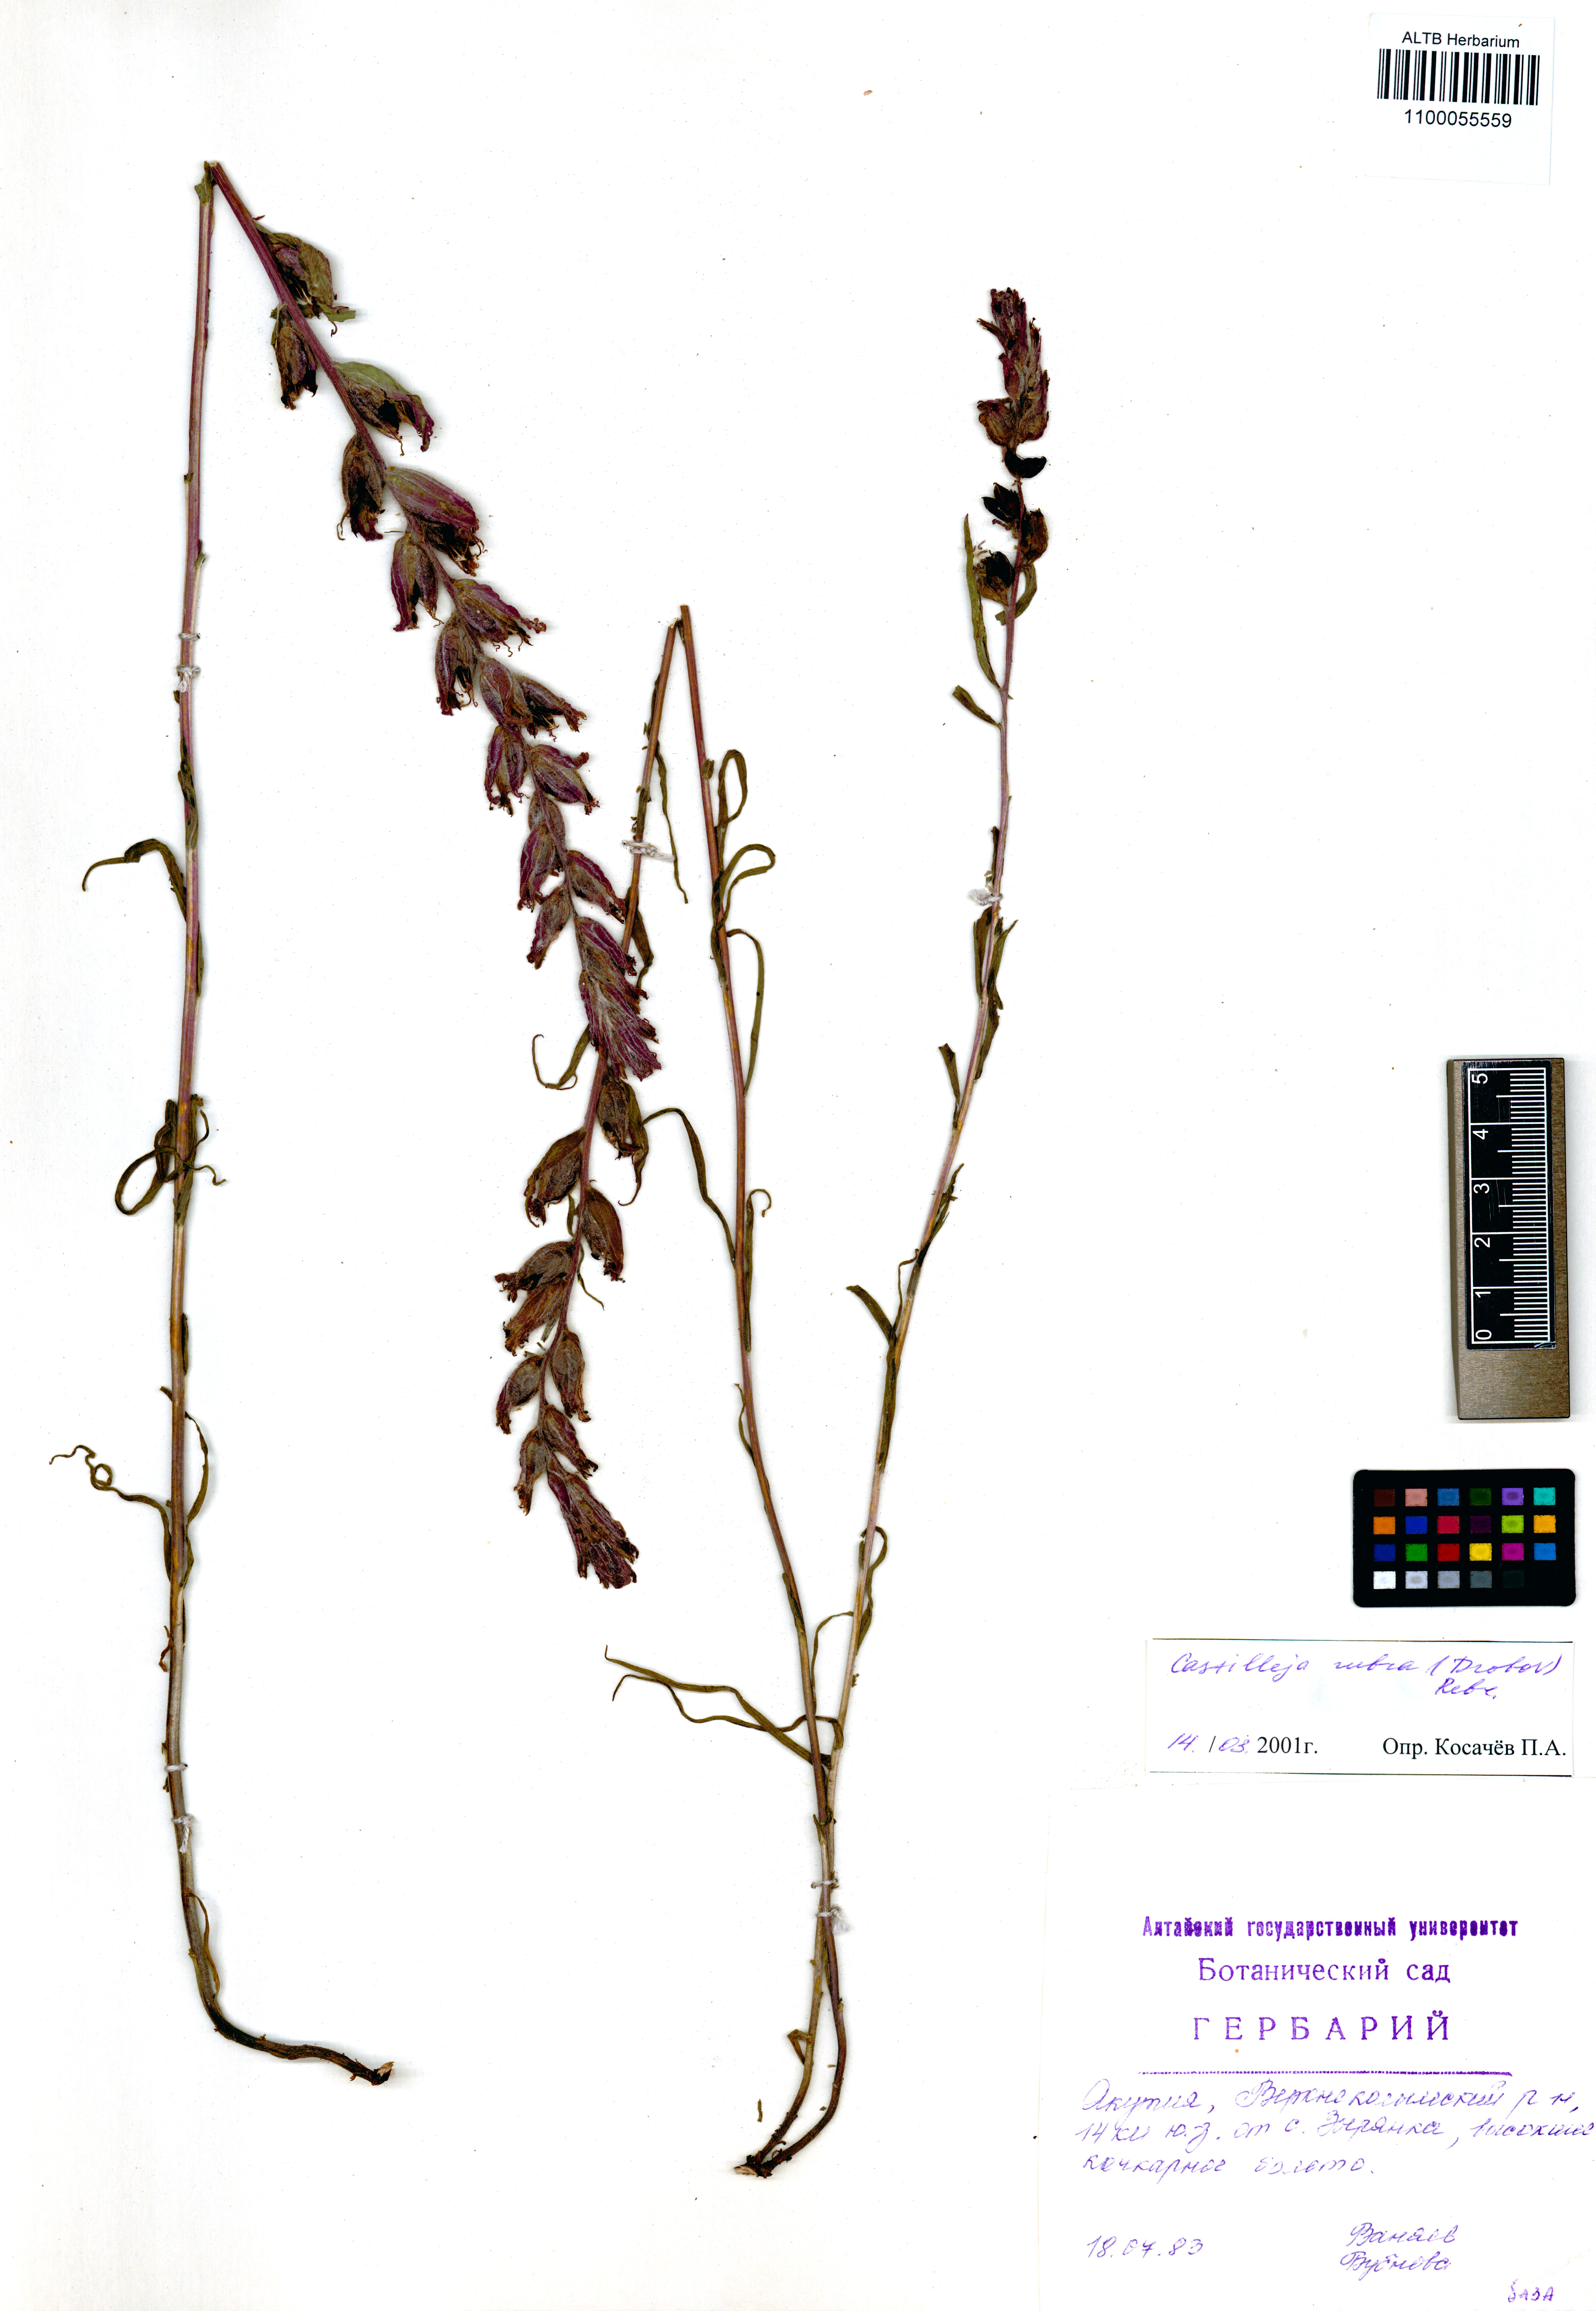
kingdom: Plantae
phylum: Tracheophyta
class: Magnoliopsida
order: Lamiales
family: Orobanchaceae
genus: Castilleja
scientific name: Castilleja rubra
